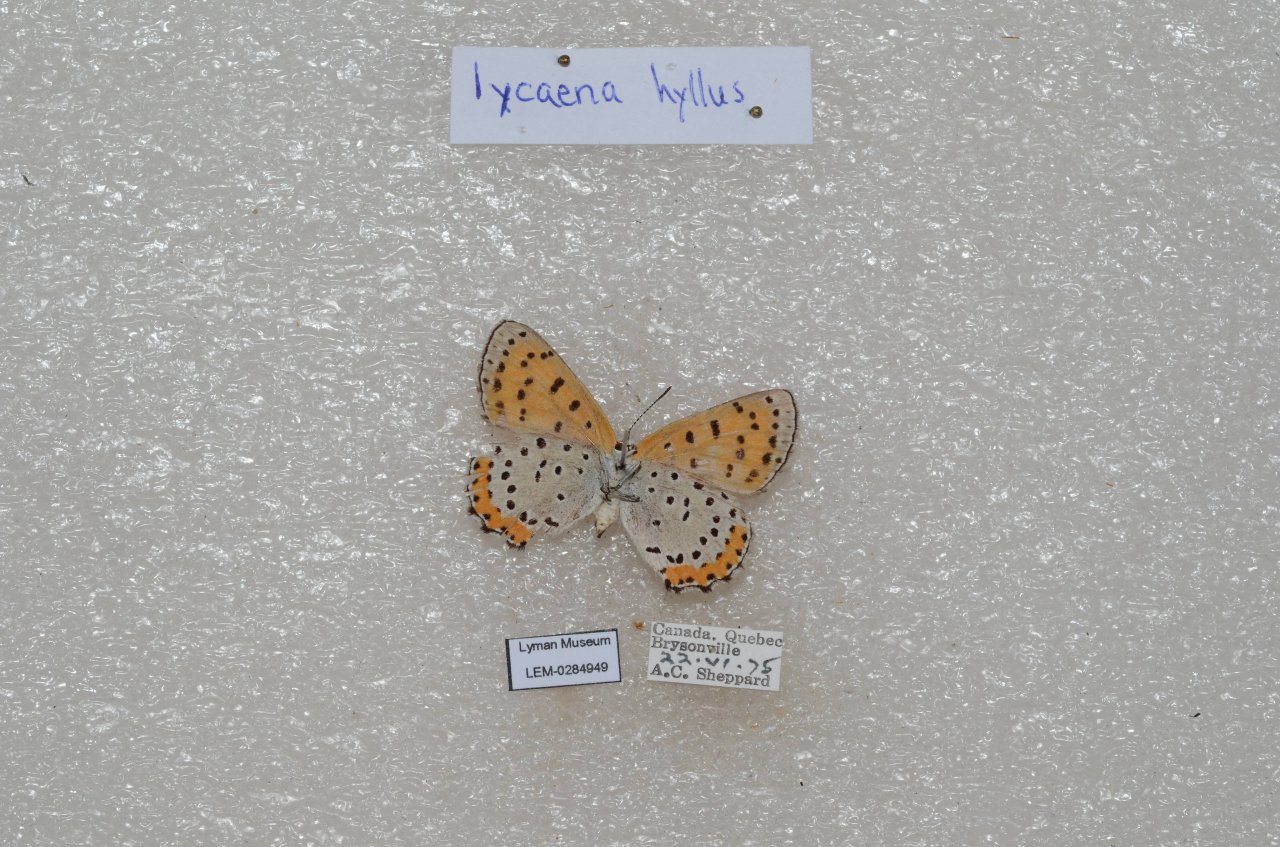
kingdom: Animalia
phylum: Arthropoda
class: Insecta
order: Lepidoptera
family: Sesiidae
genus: Sesia
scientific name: Sesia Lycaena hyllus
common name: Bronze Copper
